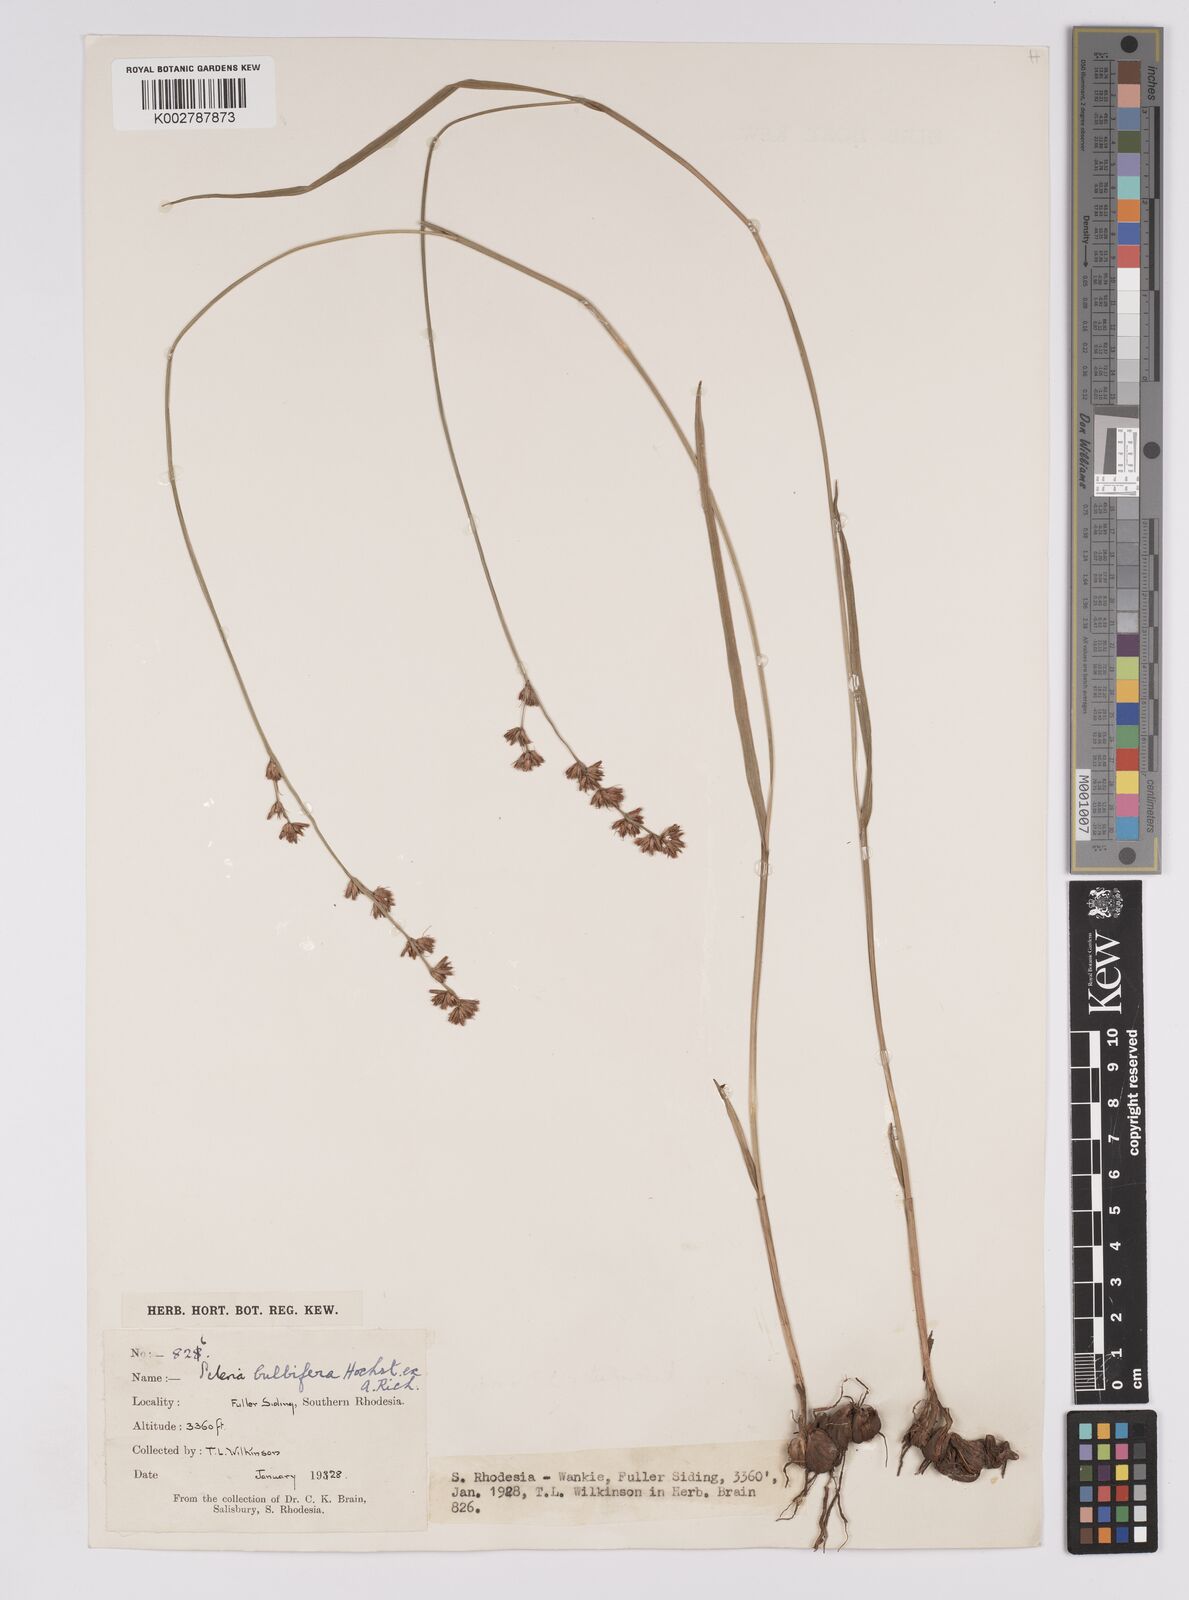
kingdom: Plantae
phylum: Tracheophyta
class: Liliopsida
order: Poales
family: Cyperaceae
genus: Scleria
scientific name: Scleria bulbifera
